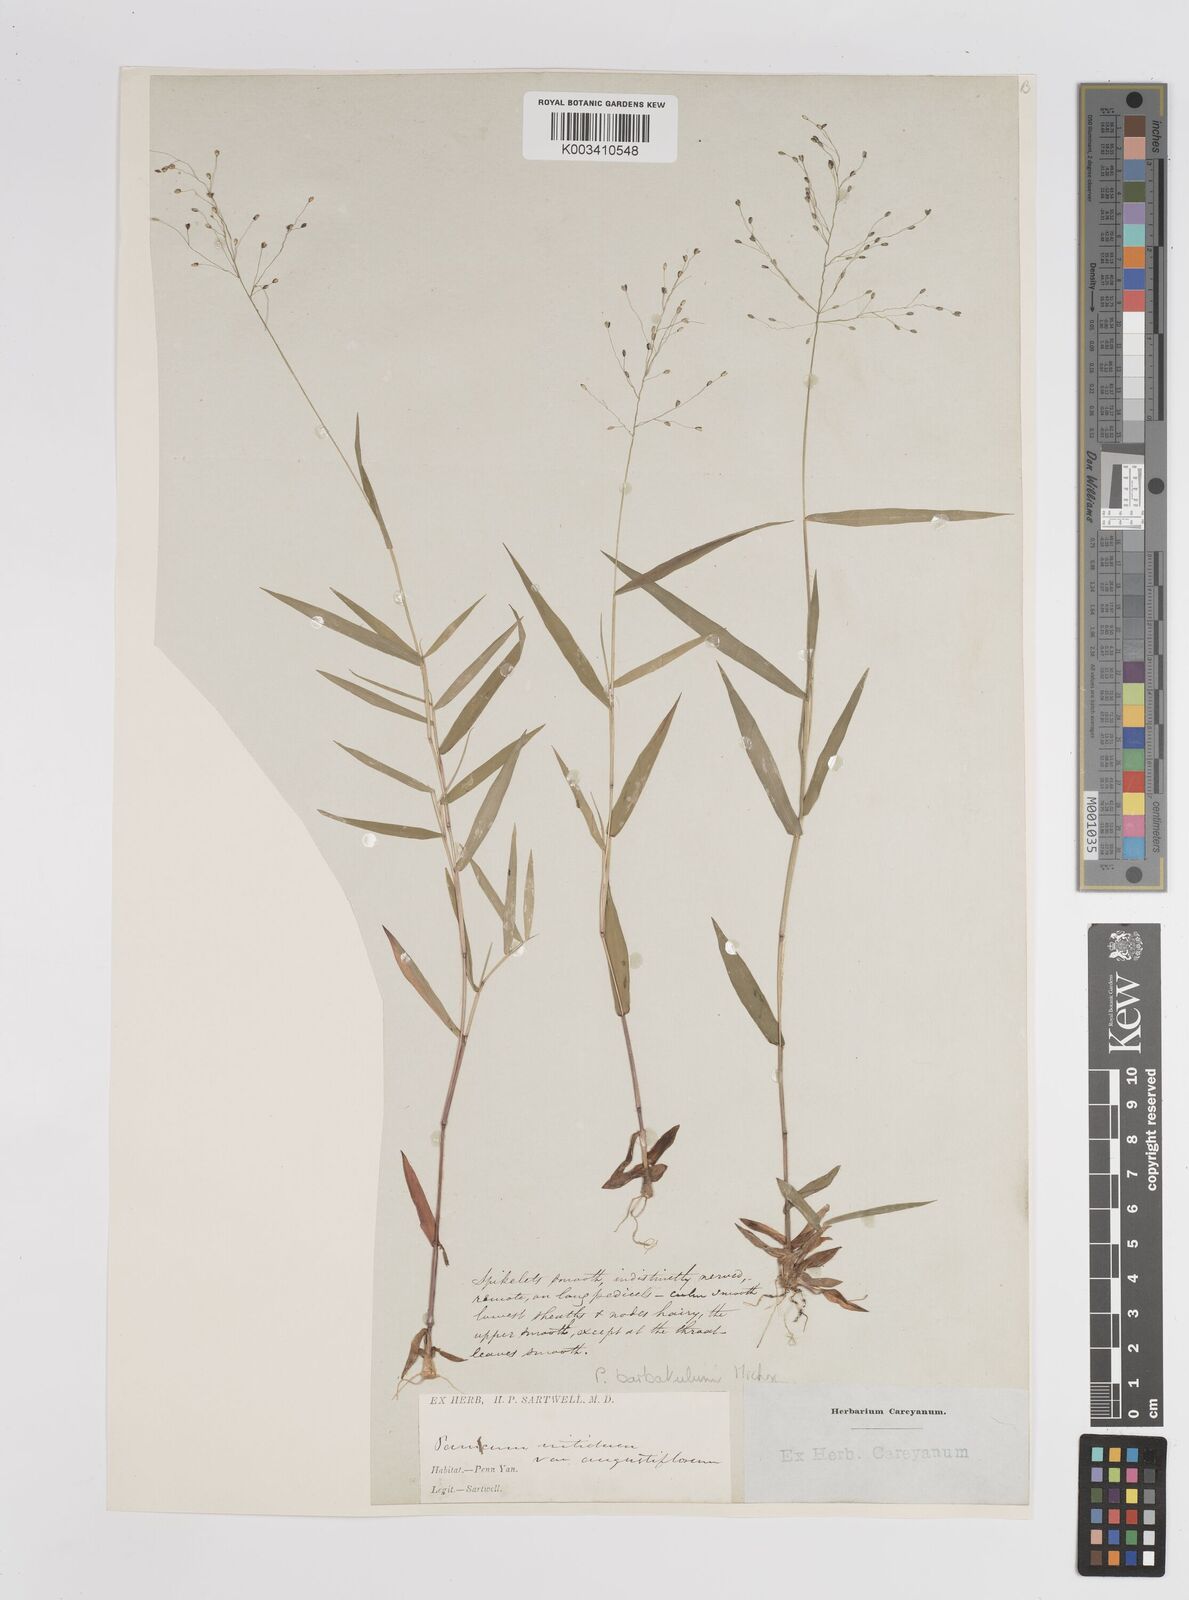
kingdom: Plantae
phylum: Tracheophyta
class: Liliopsida
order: Poales
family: Poaceae
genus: Dichanthelium
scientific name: Dichanthelium dichotomum
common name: Cypress panicgrass
